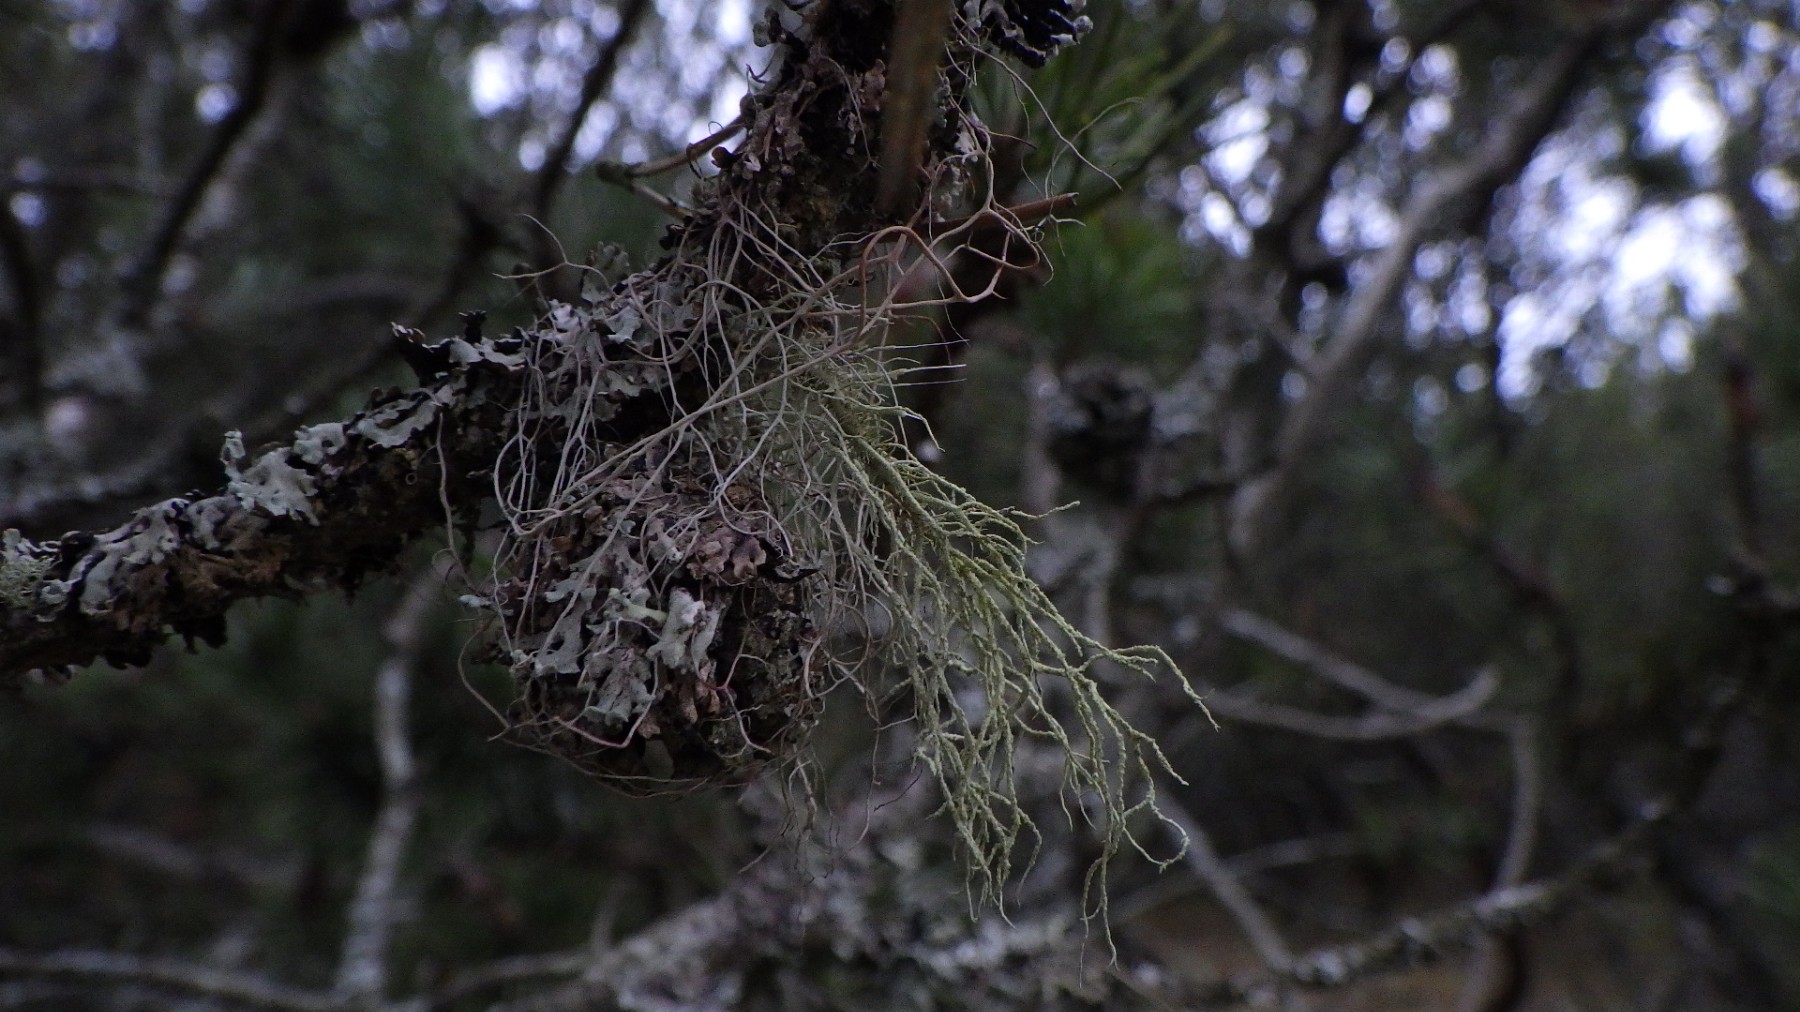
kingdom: Fungi
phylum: Ascomycota
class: Lecanoromycetes
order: Lecanorales
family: Parmeliaceae
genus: Bryoria
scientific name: Bryoria capillaris
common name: grå mankelav
